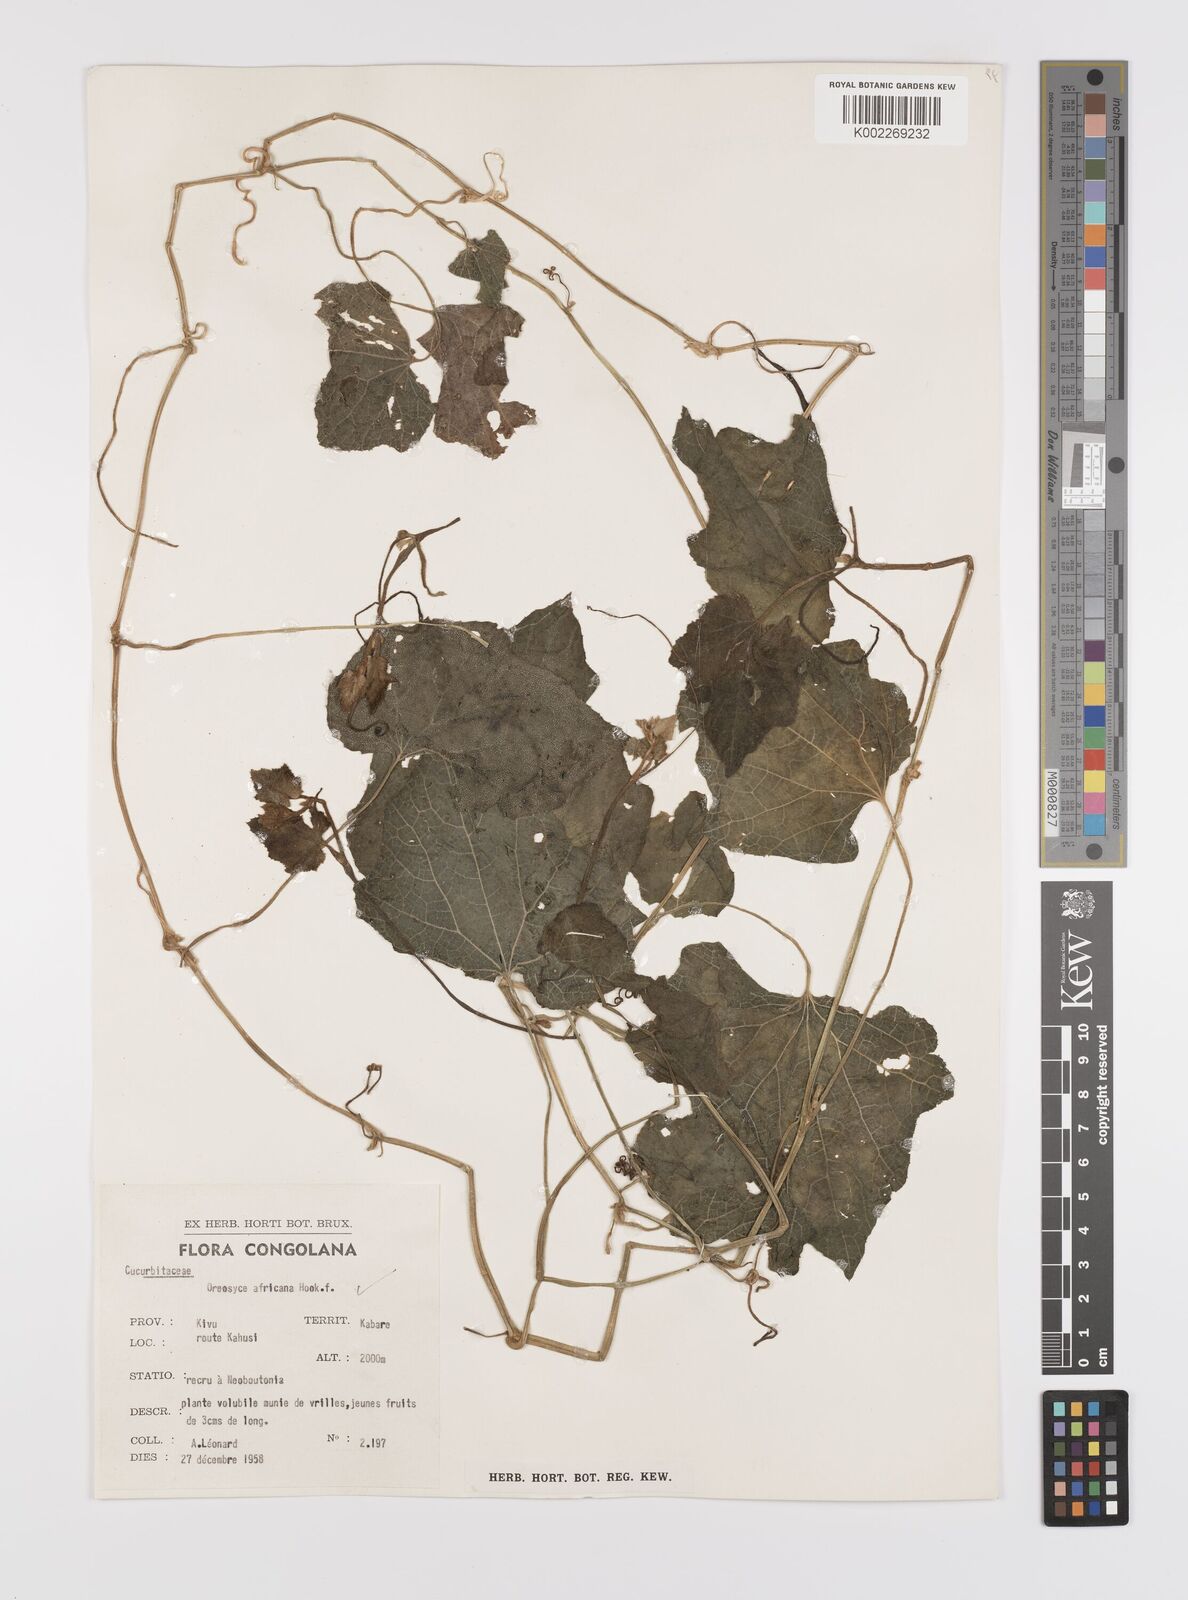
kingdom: Plantae
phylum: Tracheophyta
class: Magnoliopsida
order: Cucurbitales
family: Cucurbitaceae
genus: Cucumis
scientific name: Cucumis oreosyce
